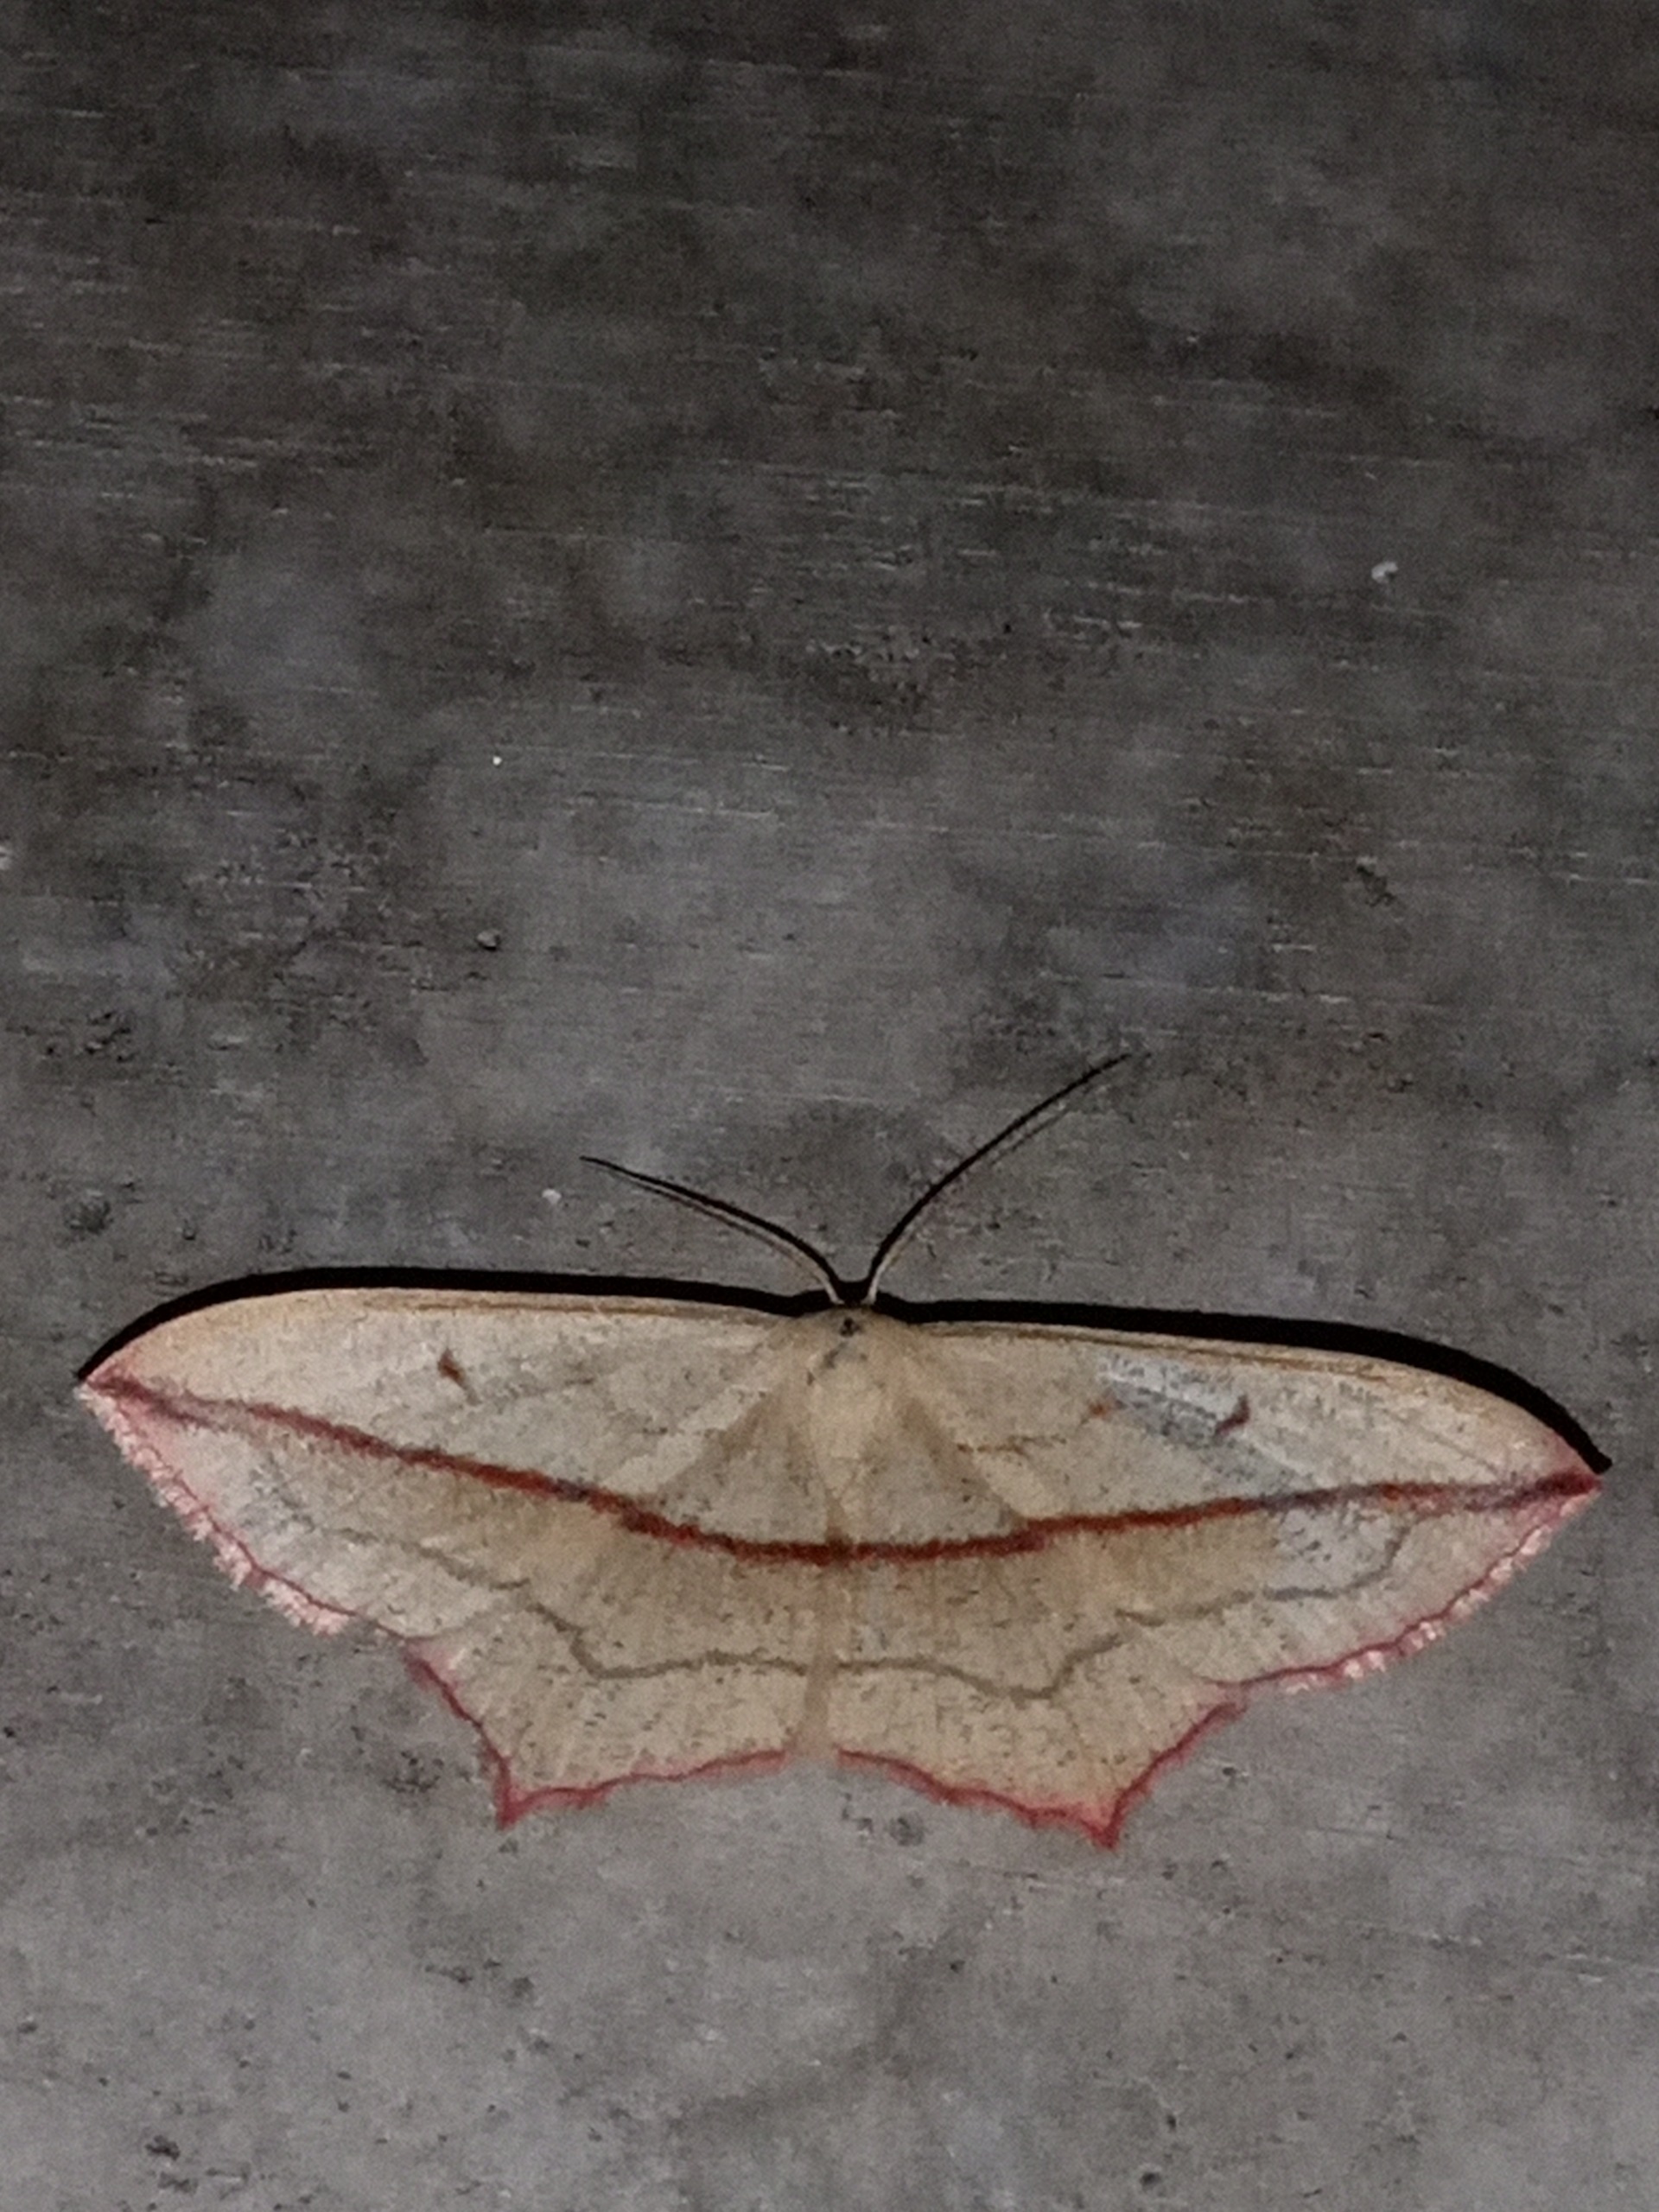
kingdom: Animalia
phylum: Arthropoda
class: Insecta
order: Lepidoptera
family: Geometridae
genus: Timandra
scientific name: Timandra comae
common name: Gul syremåler
